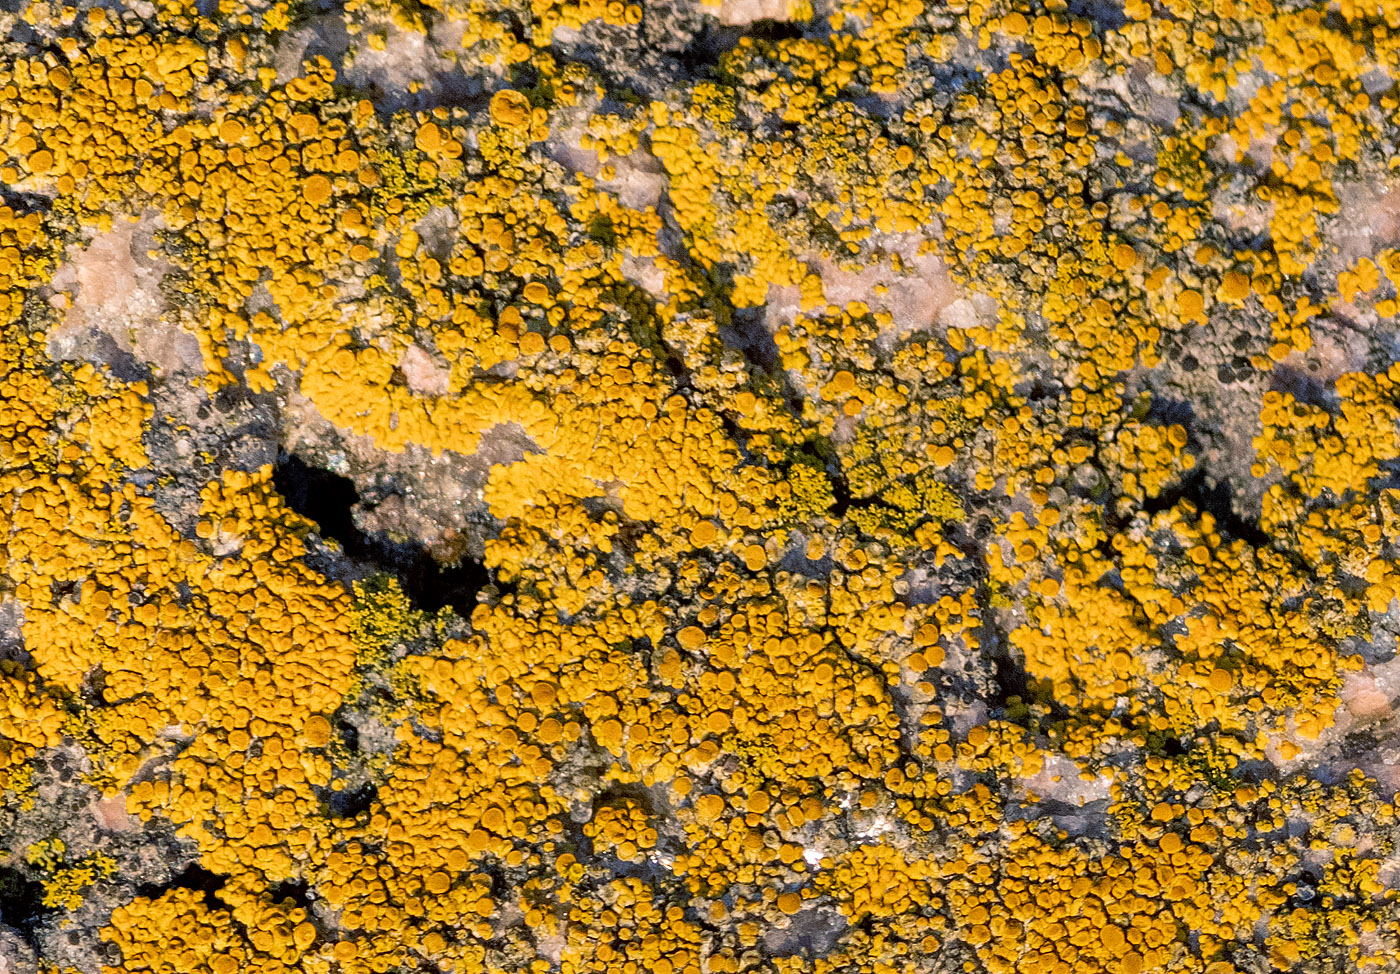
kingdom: Fungi
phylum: Ascomycota
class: Lecanoromycetes
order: Teloschistales
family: Teloschistaceae
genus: Athallia
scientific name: Athallia scopularis
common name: klippe-orangelav
